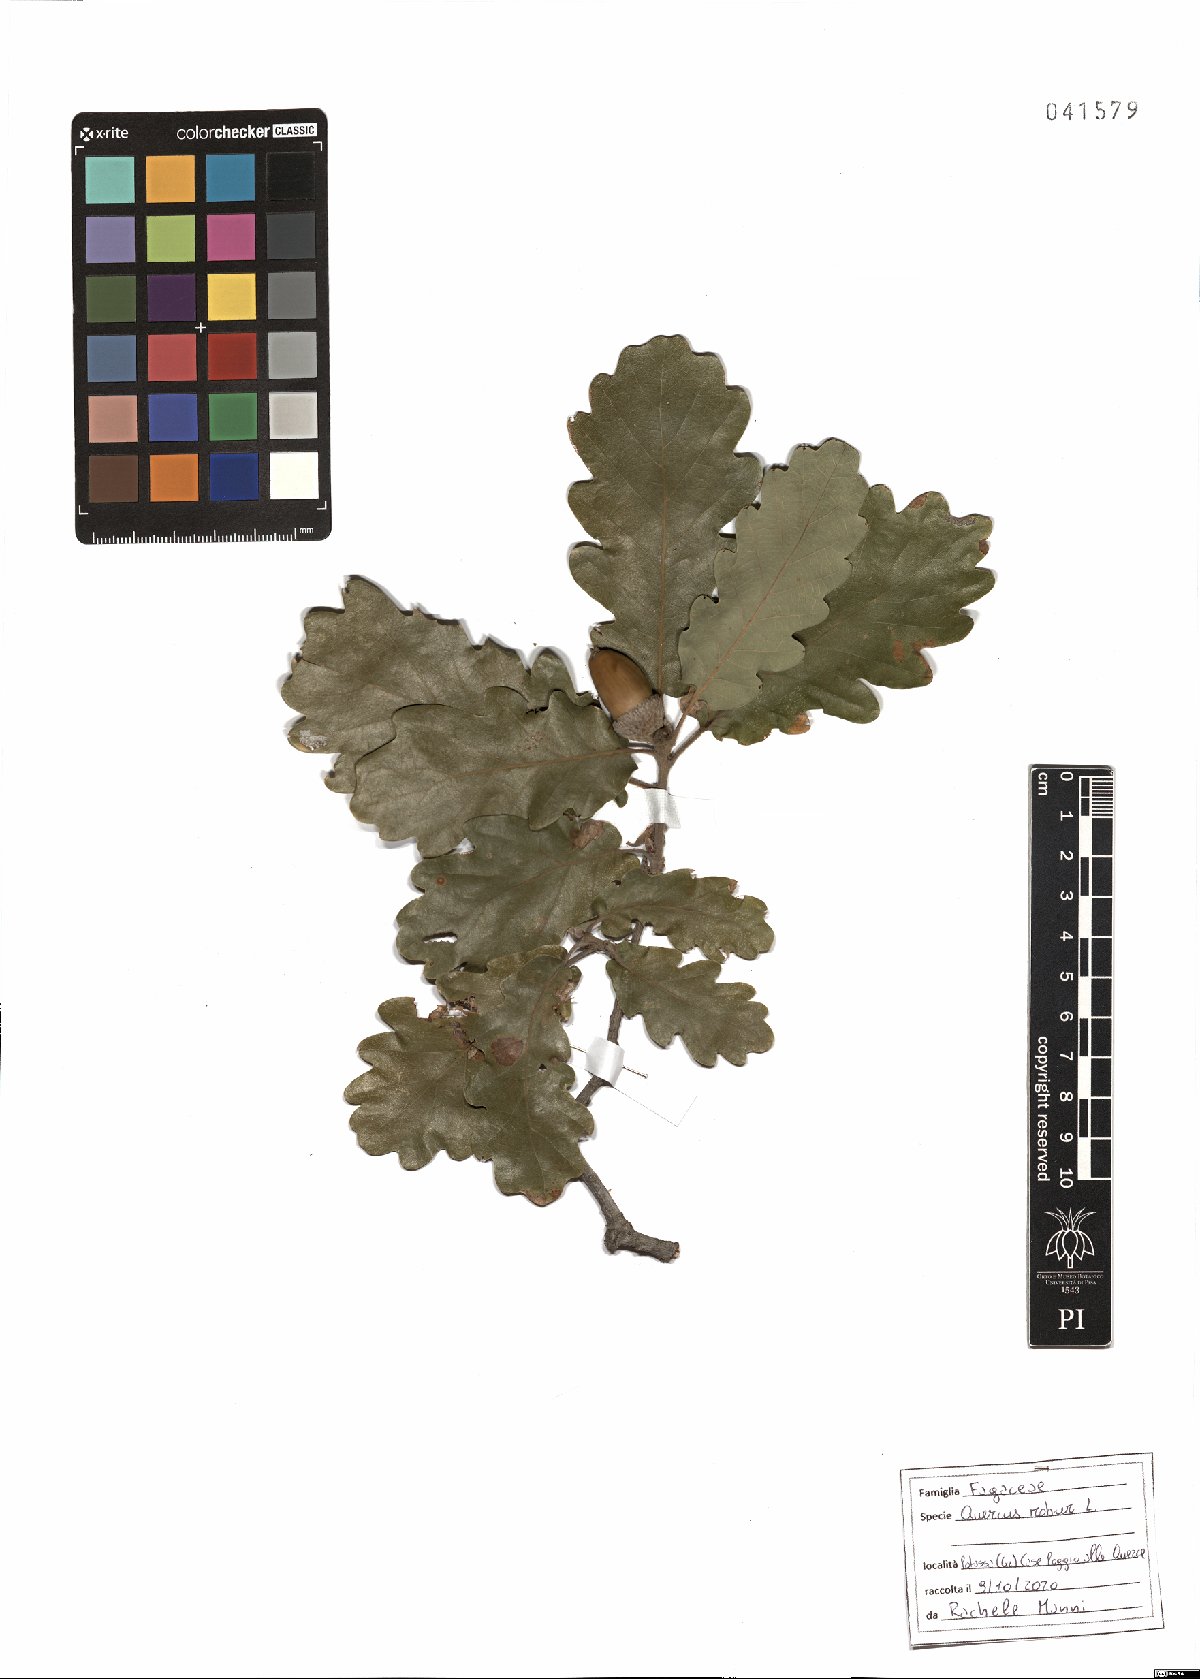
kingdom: Plantae
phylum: Tracheophyta
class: Magnoliopsida
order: Fagales
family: Fagaceae
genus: Quercus
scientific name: Quercus robur
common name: Pedunculate oak
